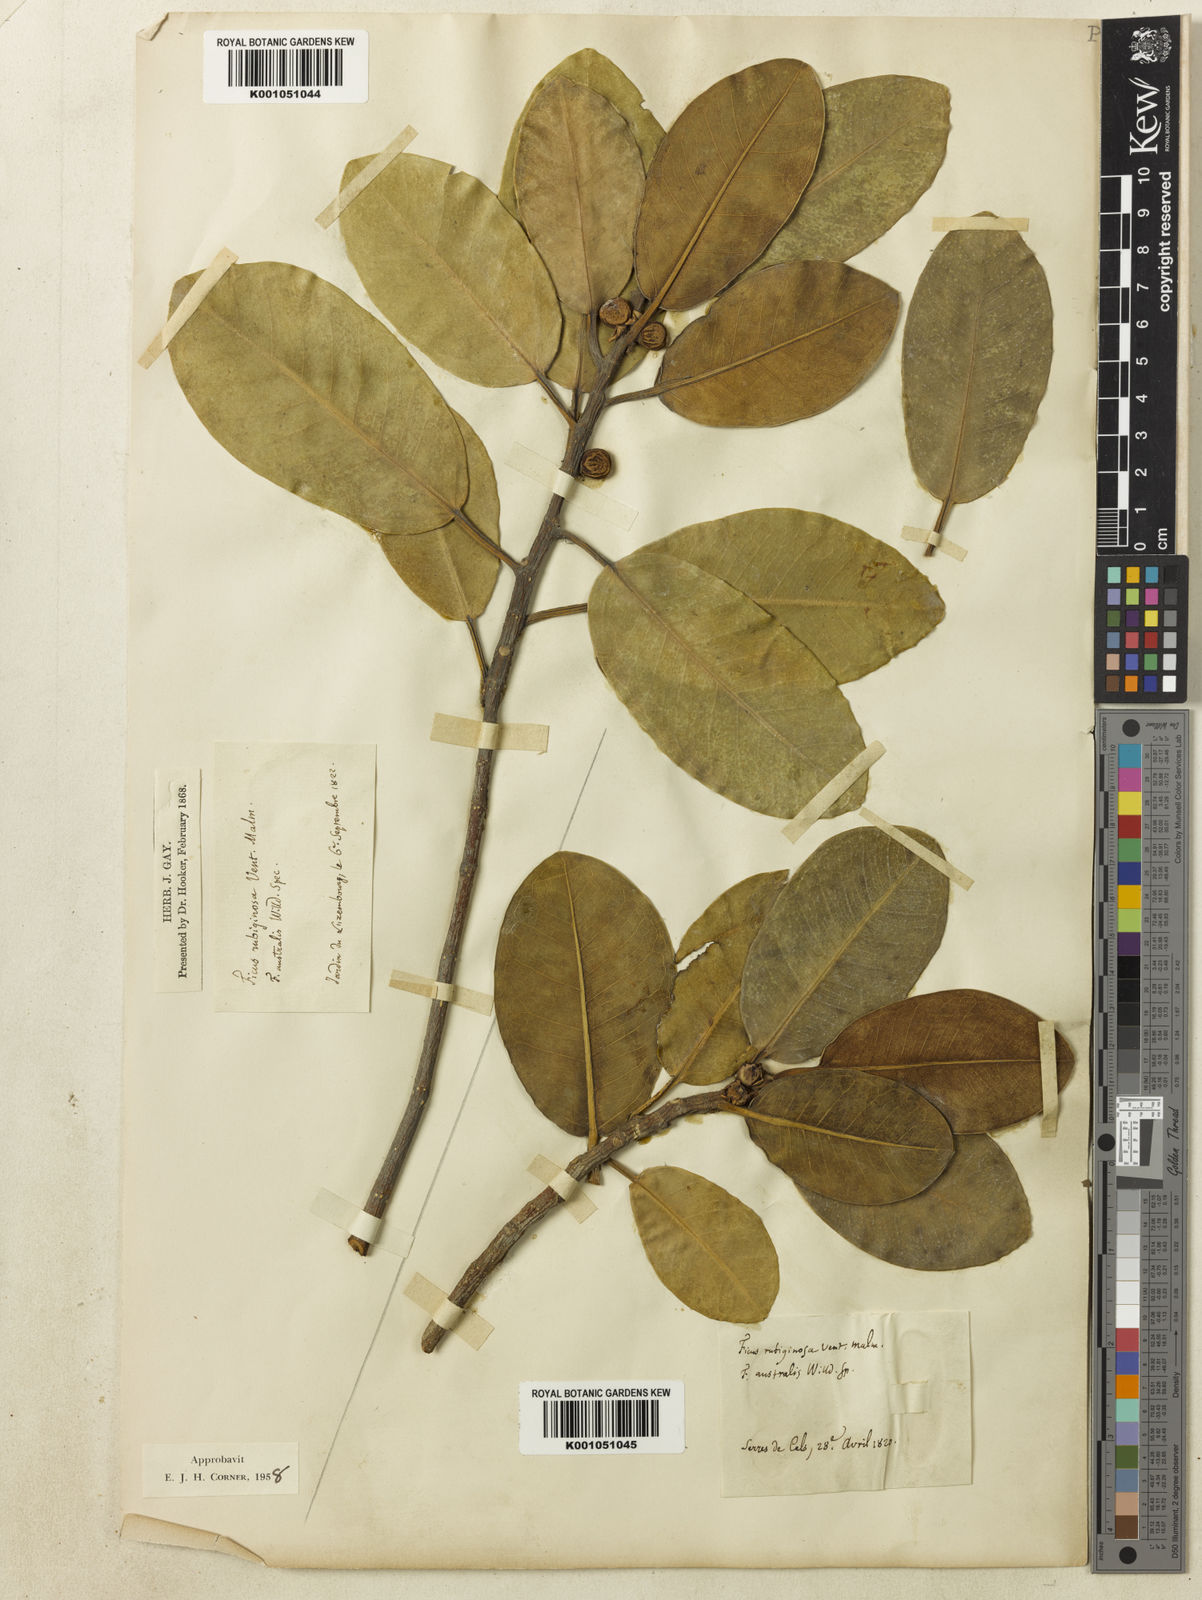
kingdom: Plantae
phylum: Tracheophyta
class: Magnoliopsida
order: Rosales
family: Moraceae
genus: Ficus
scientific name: Ficus rubiginosa
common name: Port jackson fig
